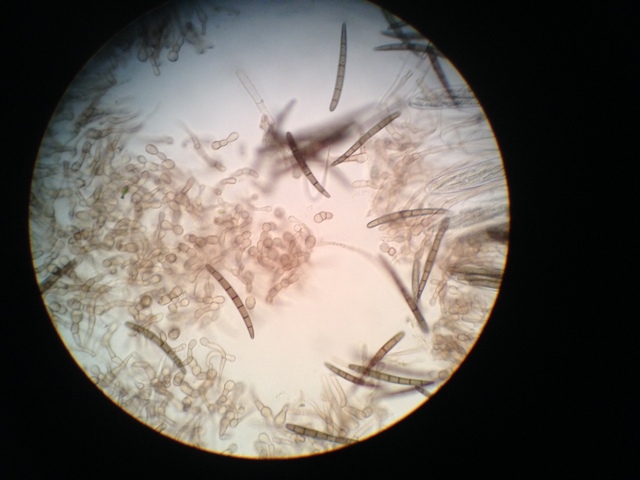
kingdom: Fungi
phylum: Ascomycota
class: Geoglossomycetes
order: Geoglossales
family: Geoglossaceae
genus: Geoglossum
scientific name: Geoglossum cookeianum
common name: bred jordtunge
